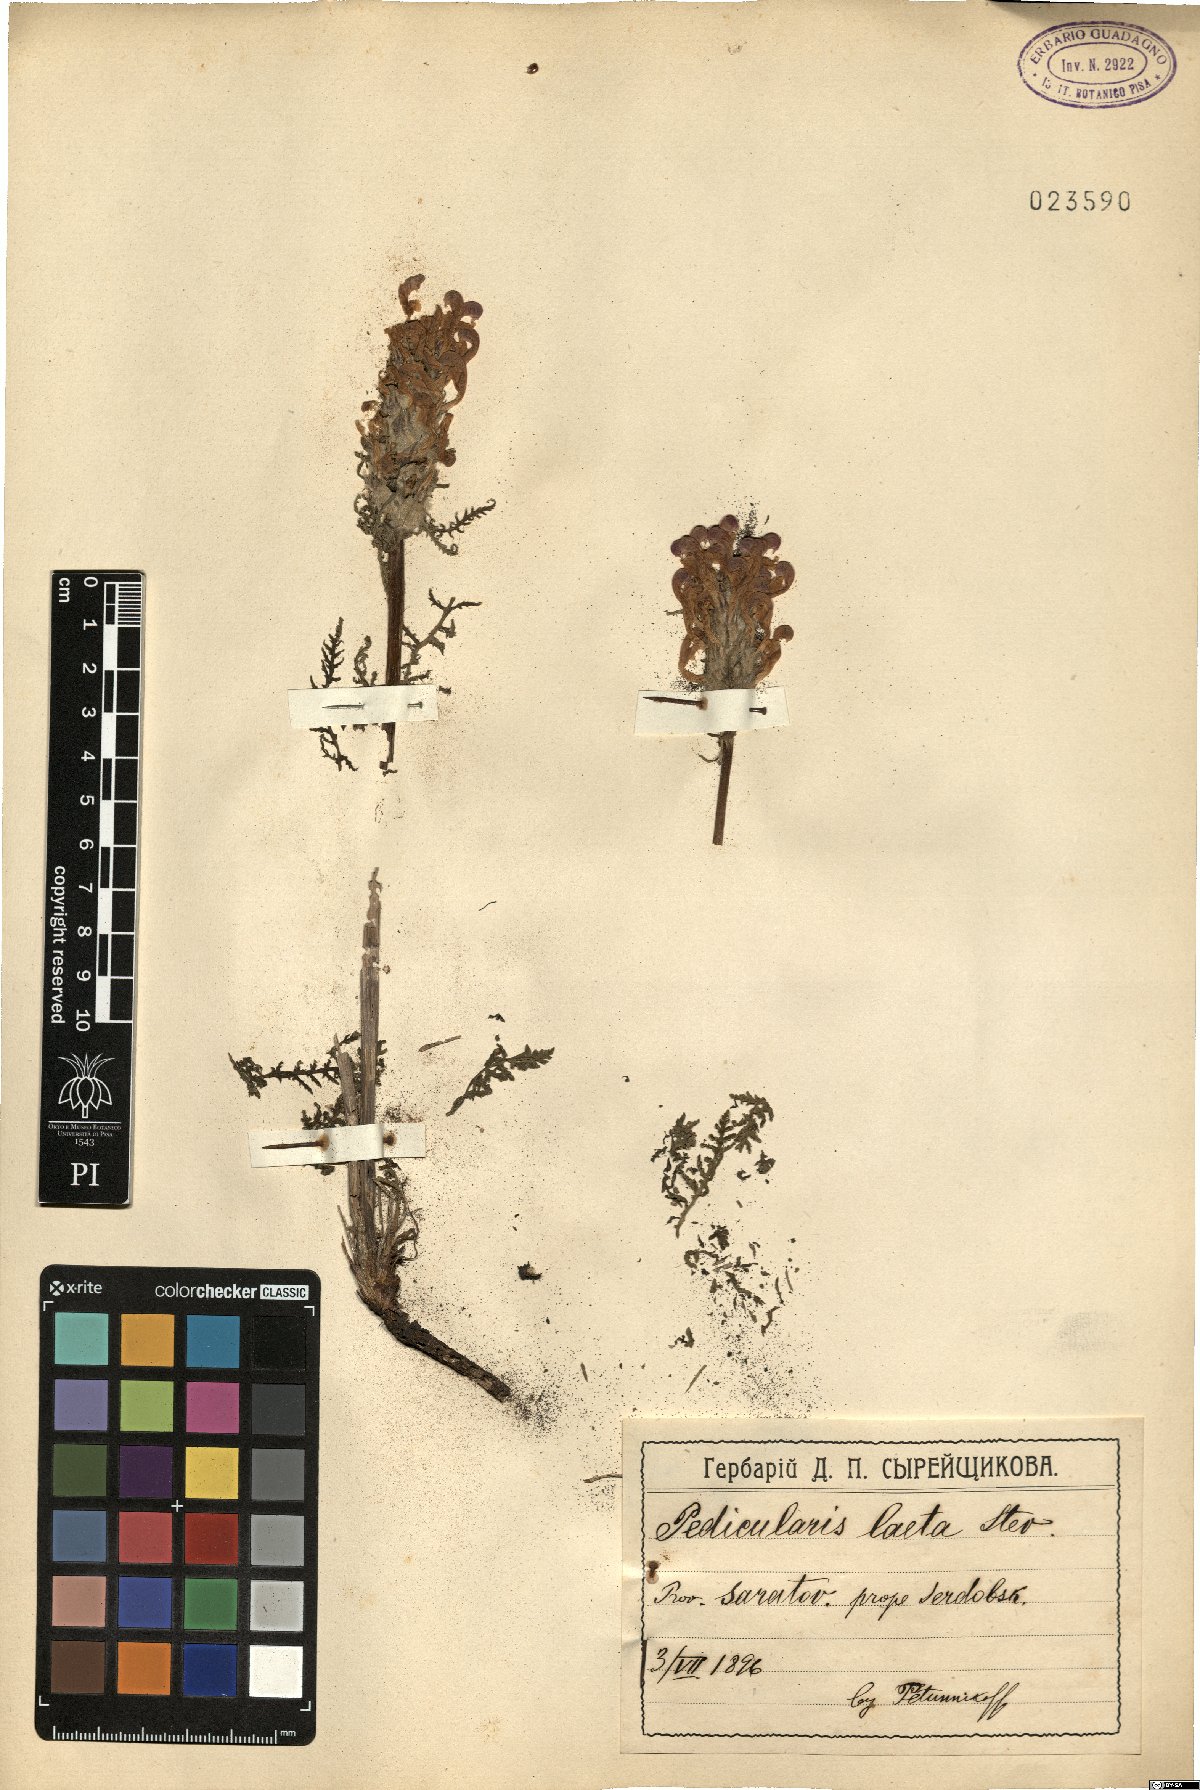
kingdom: Plantae
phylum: Tracheophyta
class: Magnoliopsida
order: Lamiales
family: Orobanchaceae
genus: Pedicularis
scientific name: Pedicularis dasystachys
